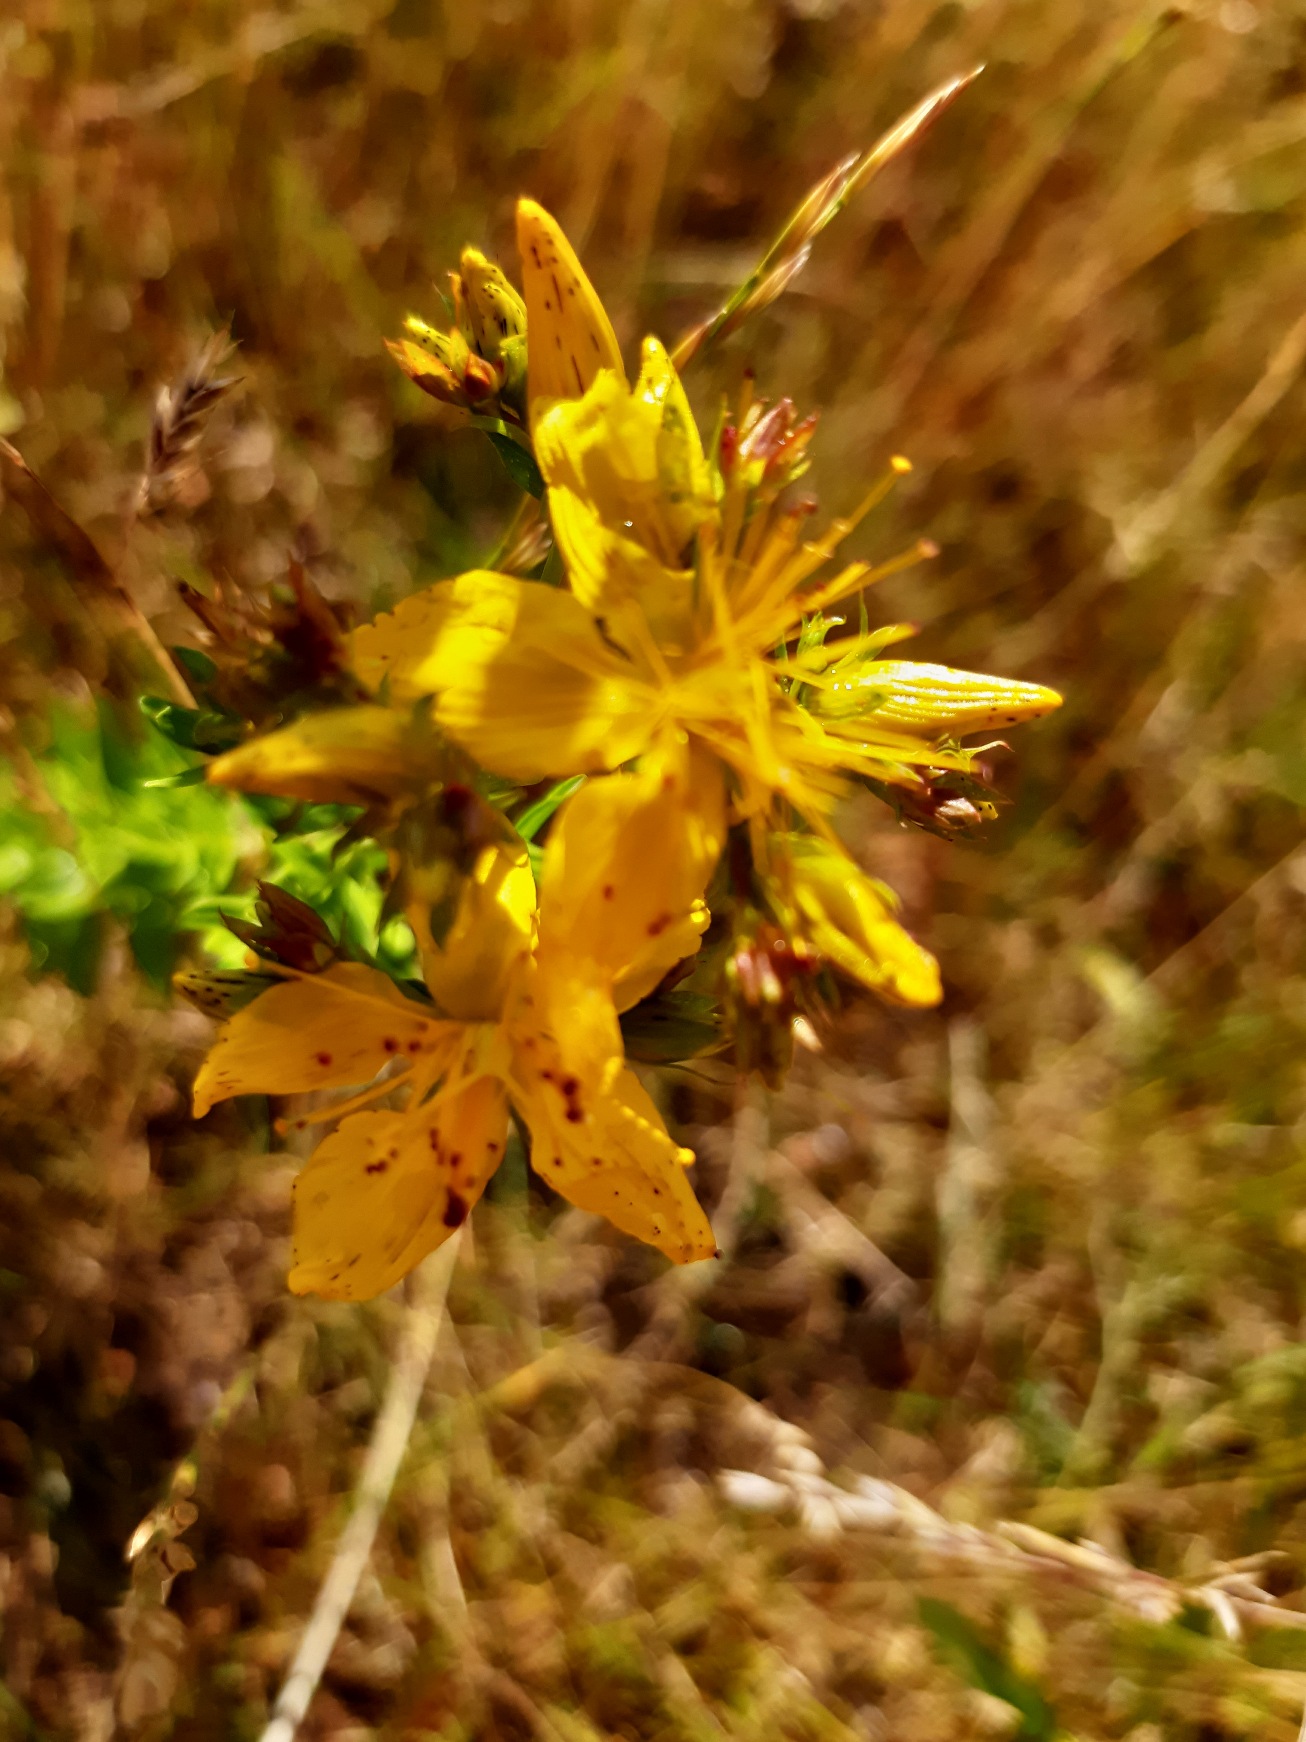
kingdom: Plantae
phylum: Tracheophyta
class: Magnoliopsida
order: Malpighiales
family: Hypericaceae
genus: Hypericum
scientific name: Hypericum perforatum
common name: Prikbladet perikon
